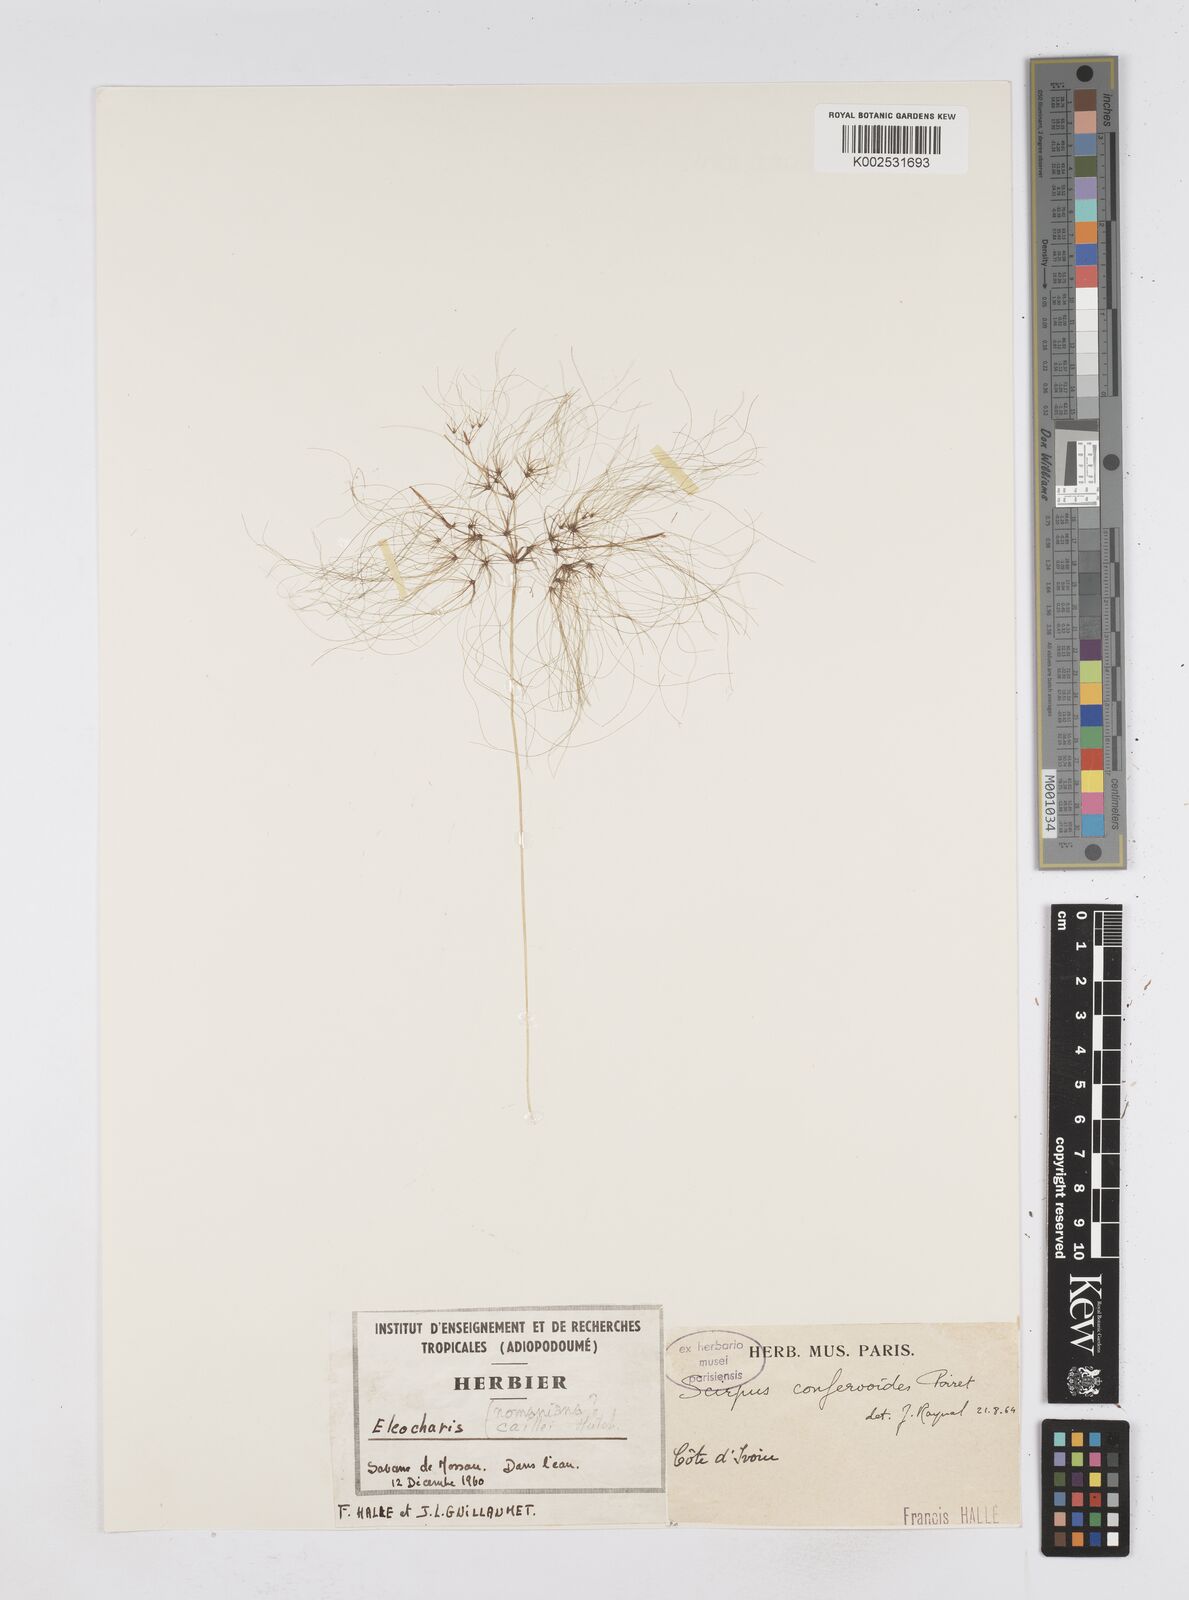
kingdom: Plantae
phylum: Tracheophyta
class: Liliopsida
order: Poales
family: Cyperaceae
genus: Eleocharis
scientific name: Eleocharis confervoides
